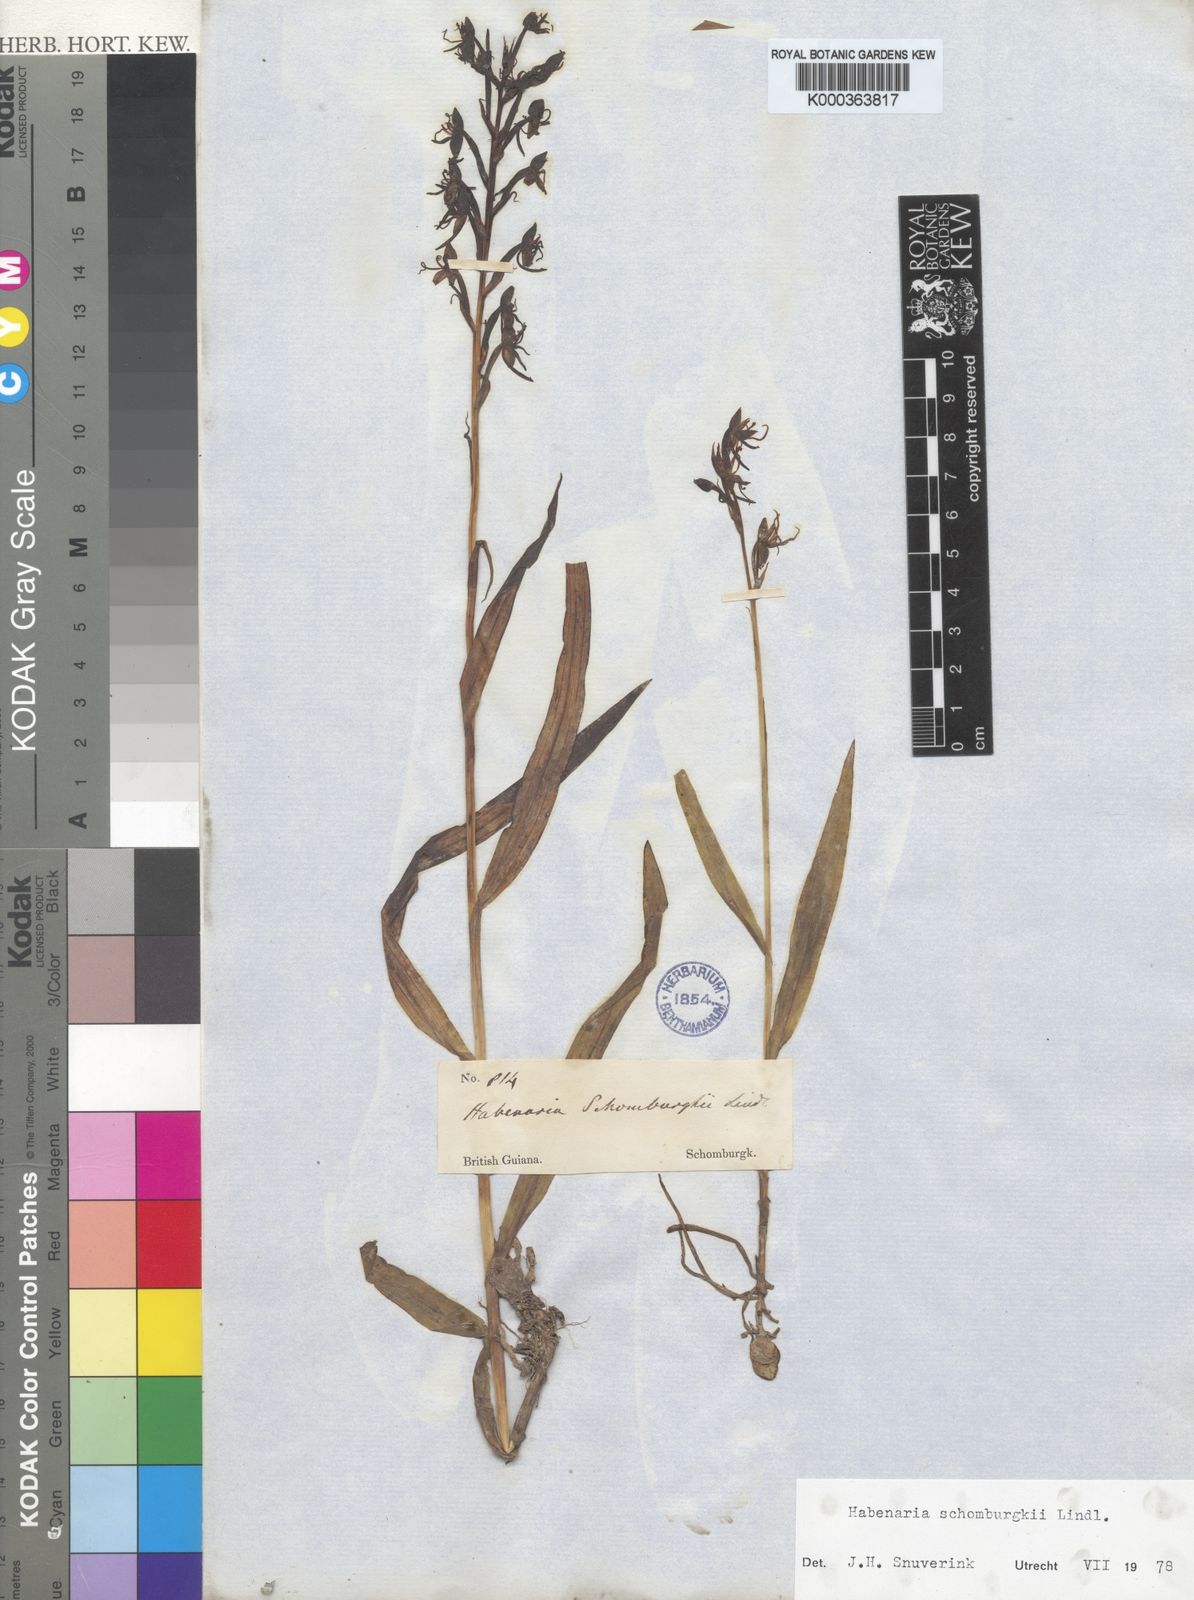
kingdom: Plantae
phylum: Tracheophyta
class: Liliopsida
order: Asparagales
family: Orchidaceae
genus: Habenaria
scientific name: Habenaria
